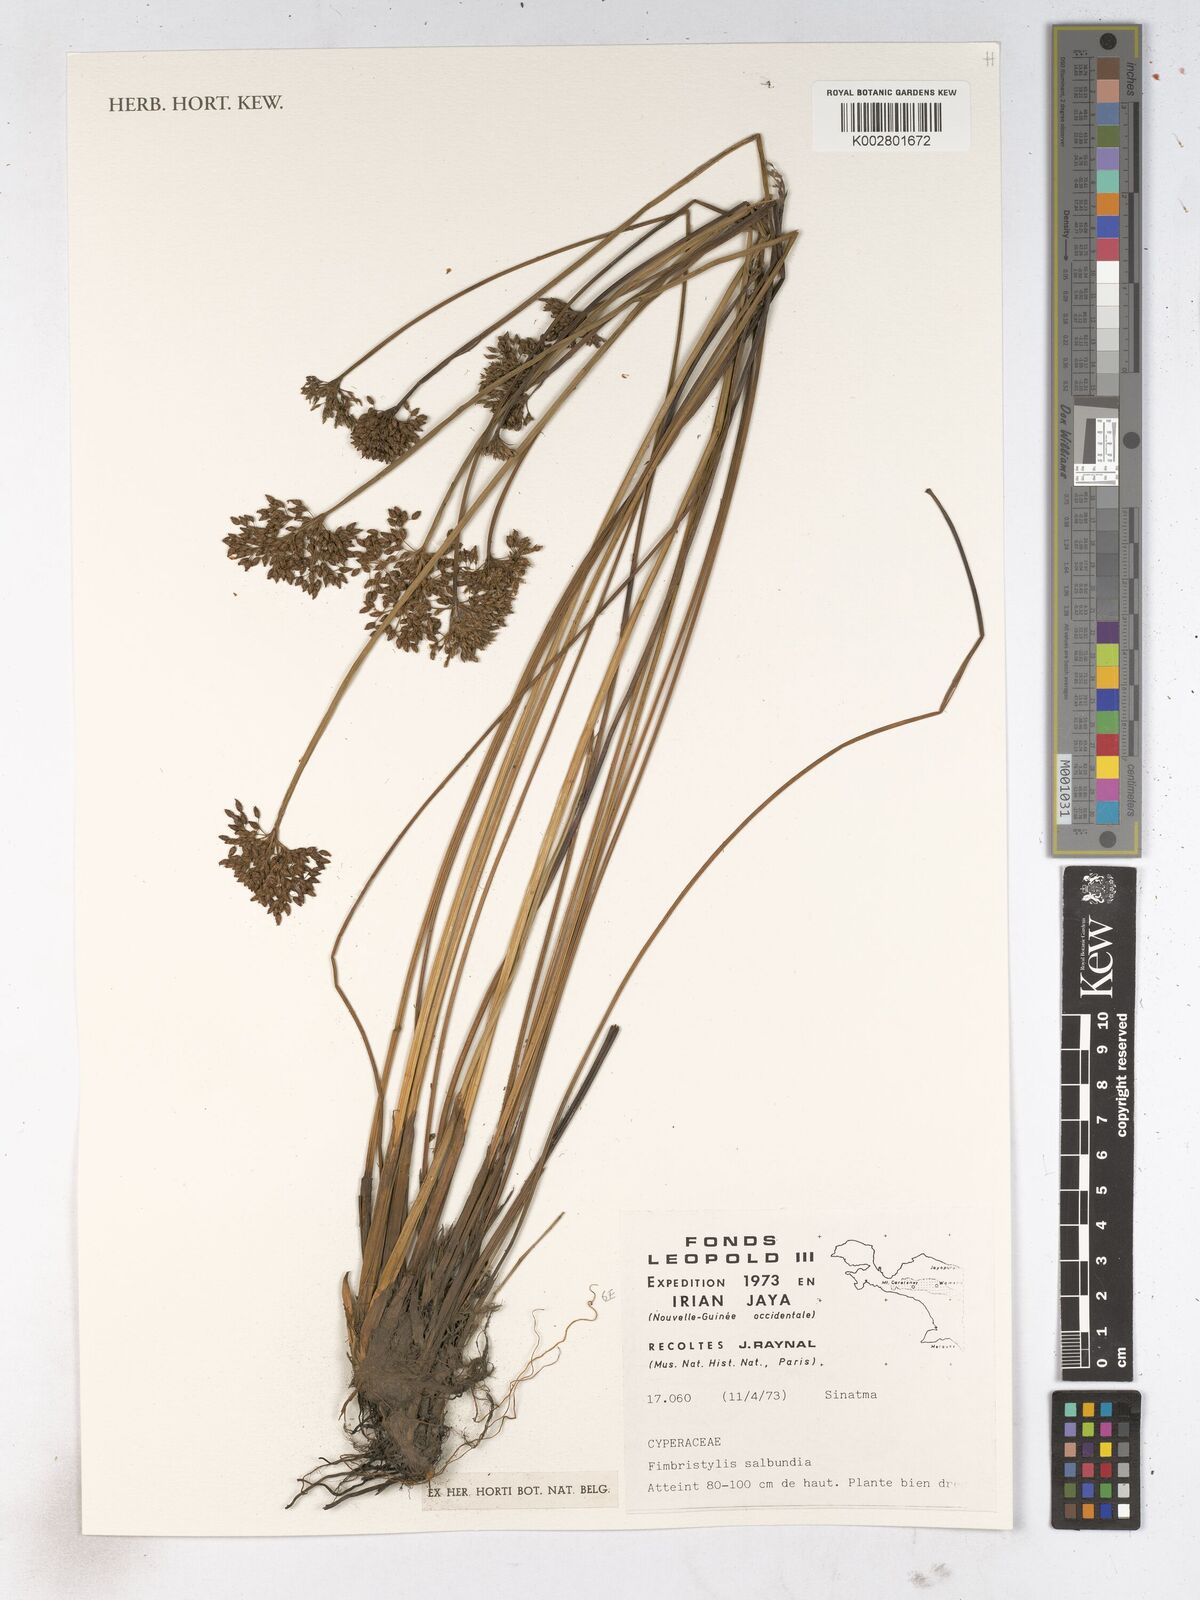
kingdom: Plantae
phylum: Tracheophyta
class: Liliopsida
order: Poales
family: Cyperaceae
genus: Fimbristylis
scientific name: Fimbristylis salbundia
